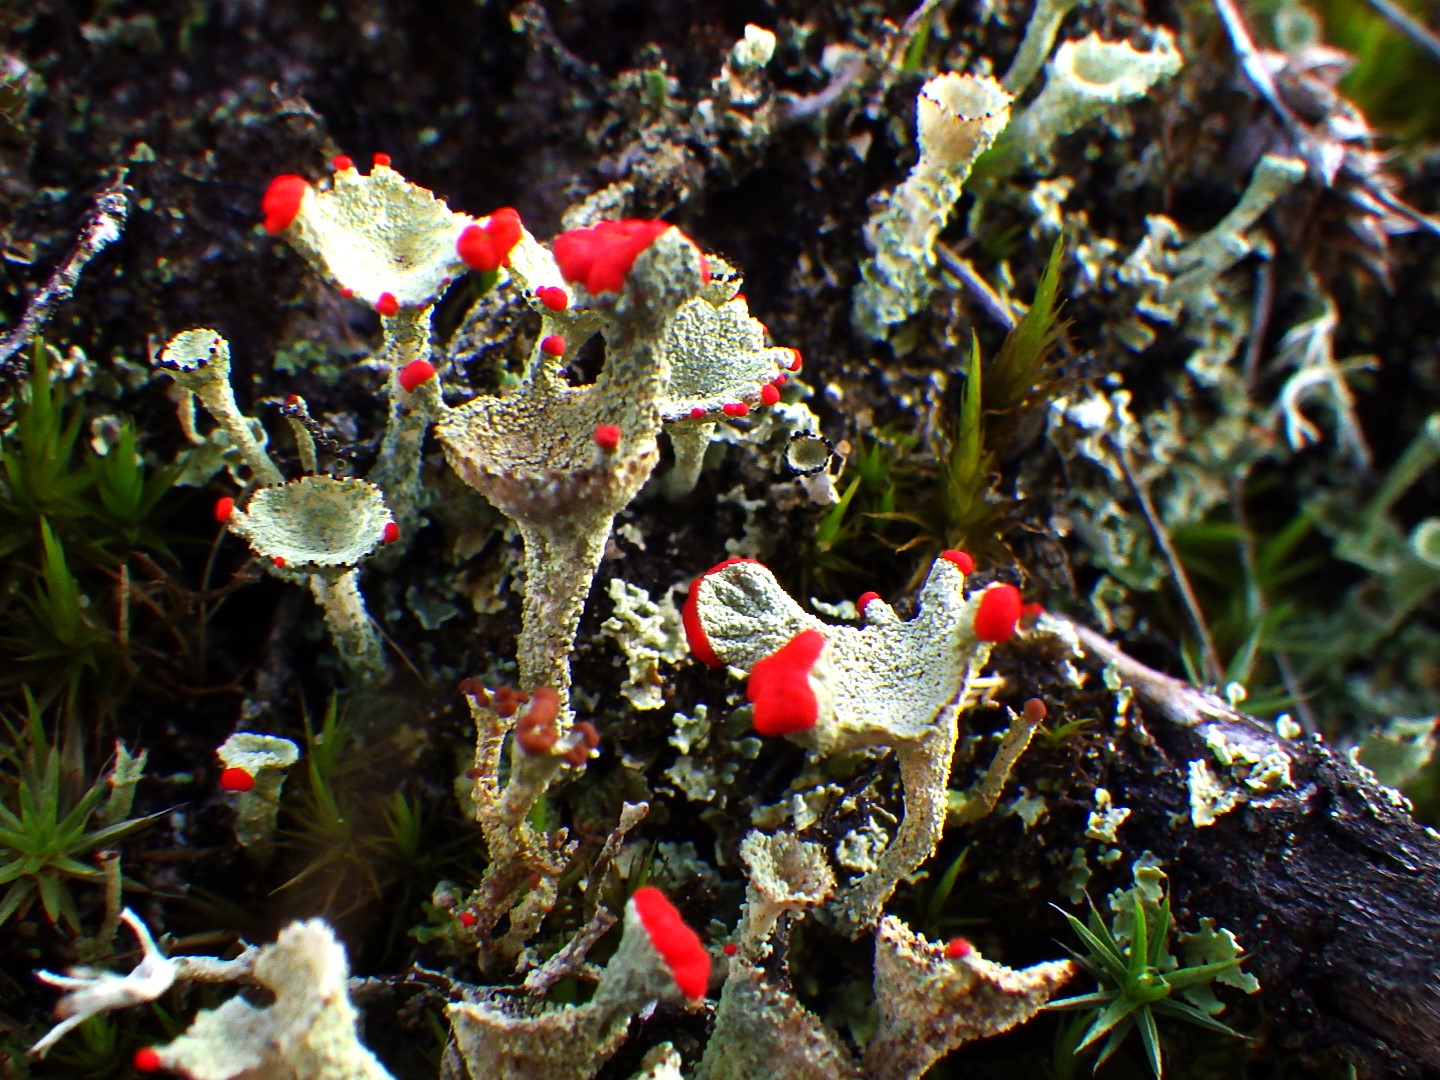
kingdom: Fungi
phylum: Ascomycota
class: Lecanoromycetes
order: Lecanorales
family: Cladoniaceae
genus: Cladonia
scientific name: Cladonia diversa
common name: rød bægerlav
